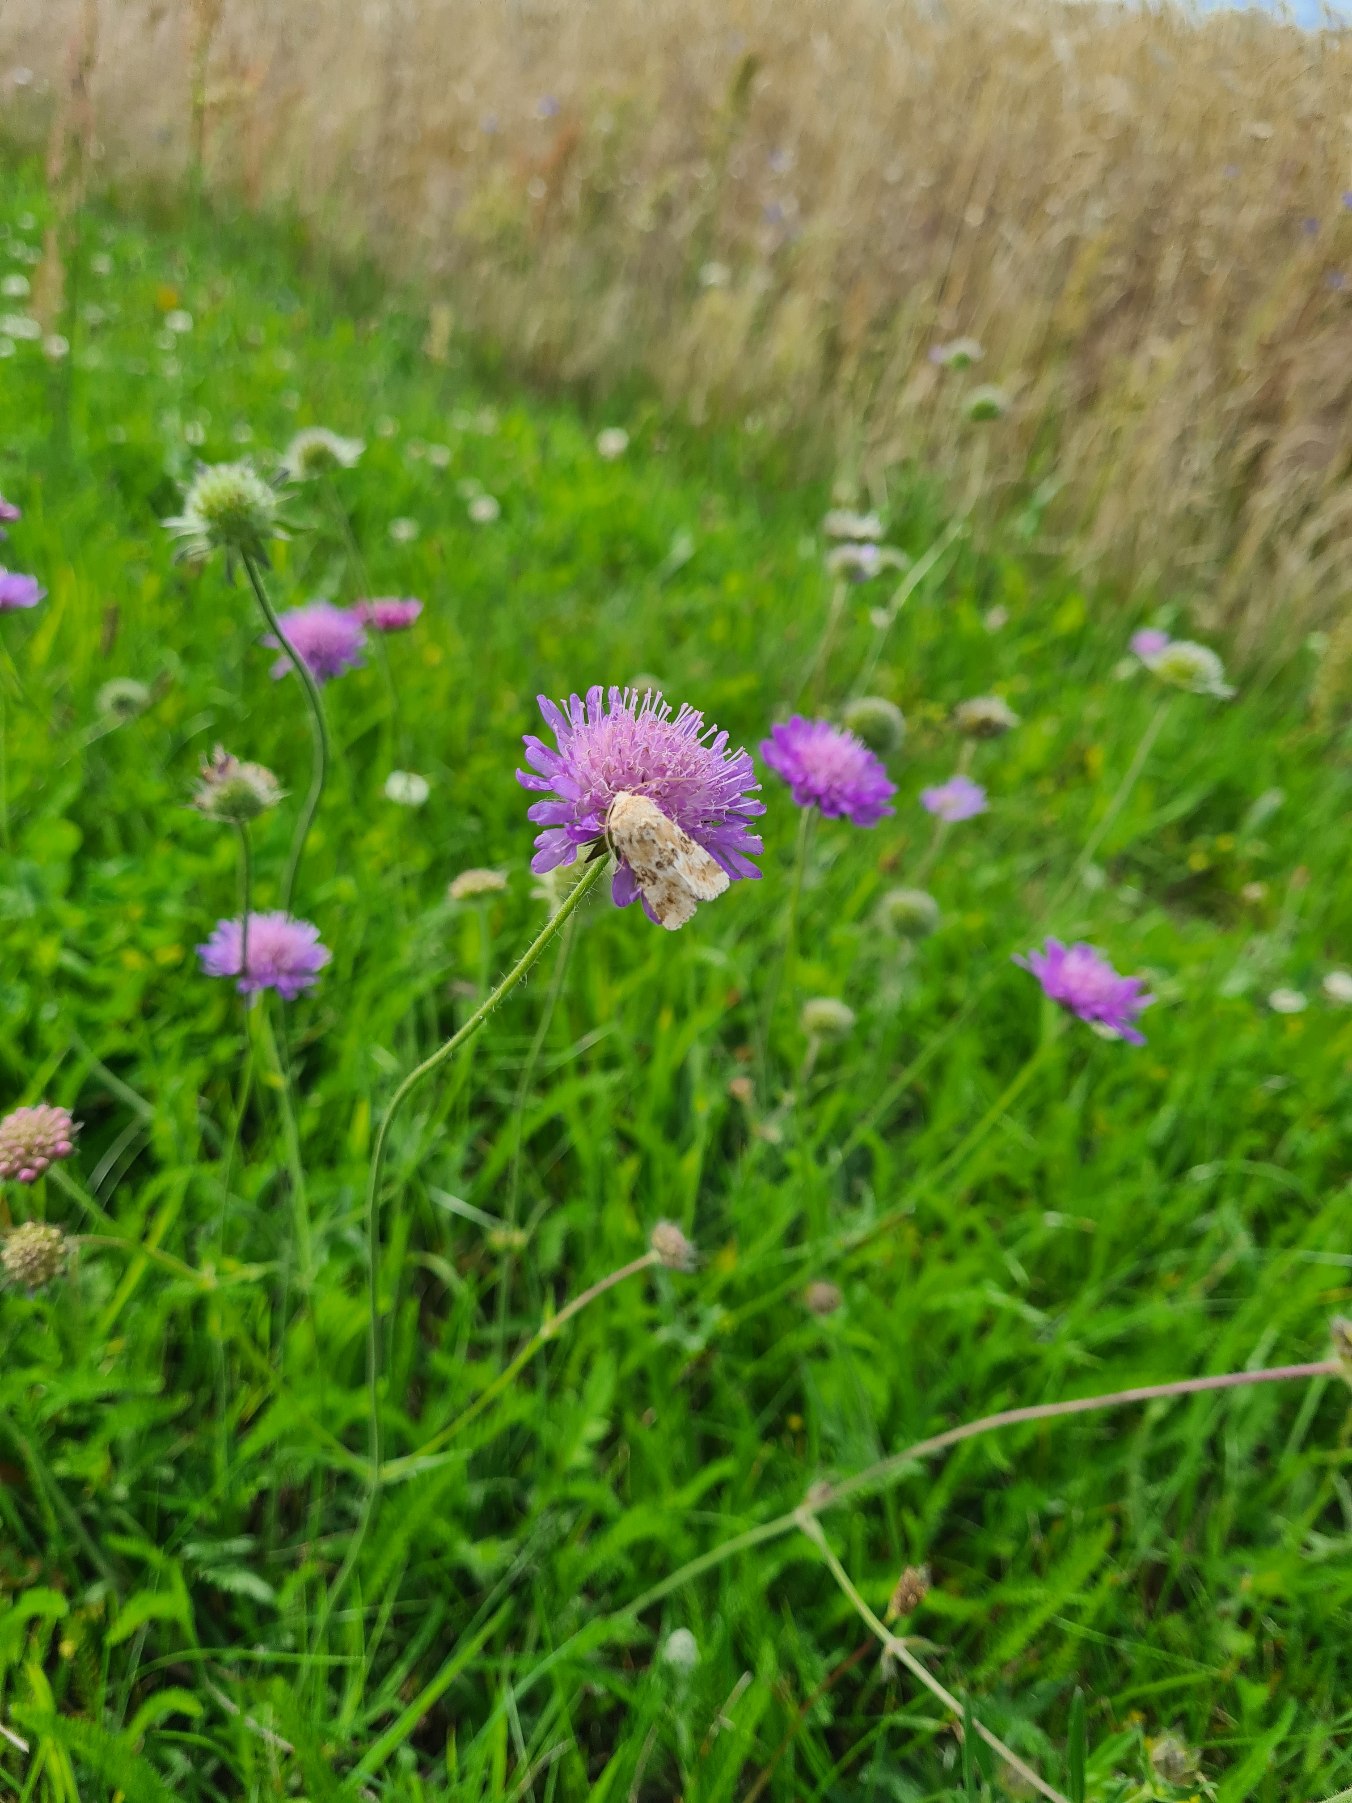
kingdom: Plantae
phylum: Tracheophyta
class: Magnoliopsida
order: Dipsacales
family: Caprifoliaceae
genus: Knautia
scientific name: Knautia arvensis
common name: Blåhat
